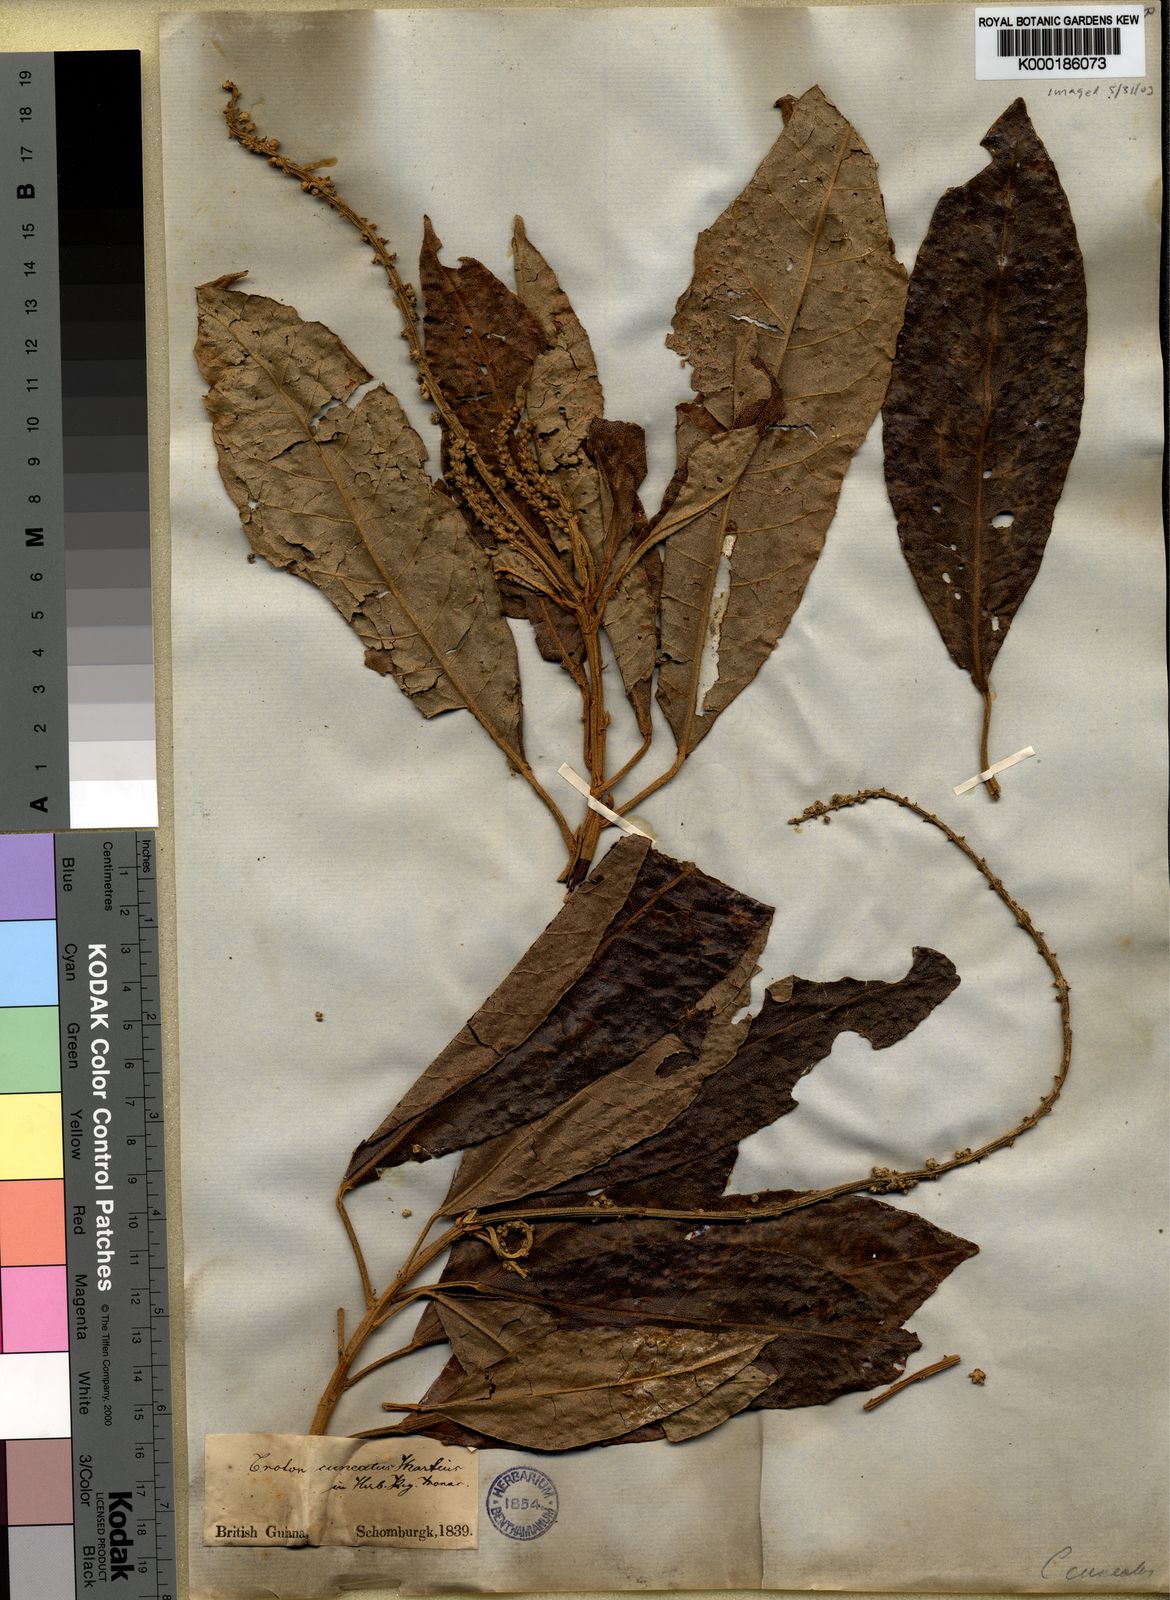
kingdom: Plantae
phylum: Tracheophyta
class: Magnoliopsida
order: Malpighiales
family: Euphorbiaceae
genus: Croton
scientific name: Croton cuneatus
